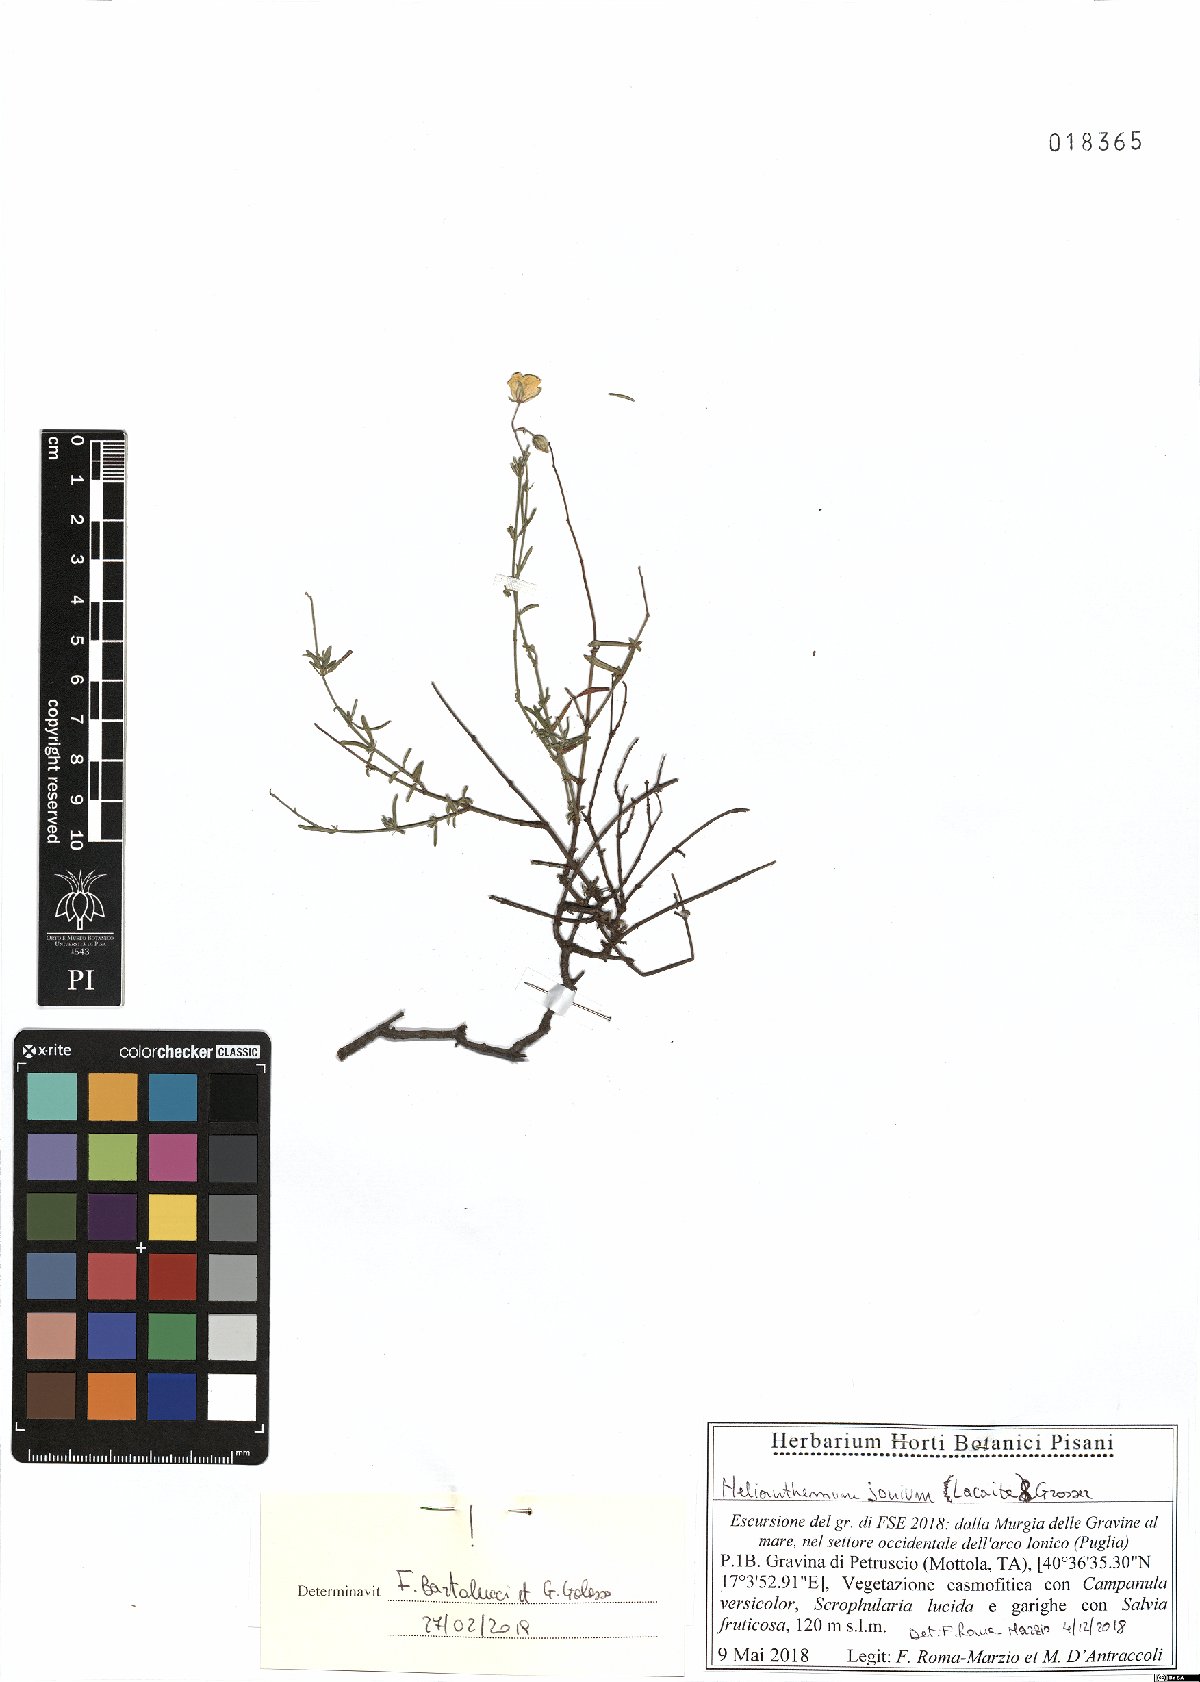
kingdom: Plantae
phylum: Tracheophyta
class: Magnoliopsida
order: Malvales
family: Cistaceae
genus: Helianthemum
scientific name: Helianthemum leptophyllum
